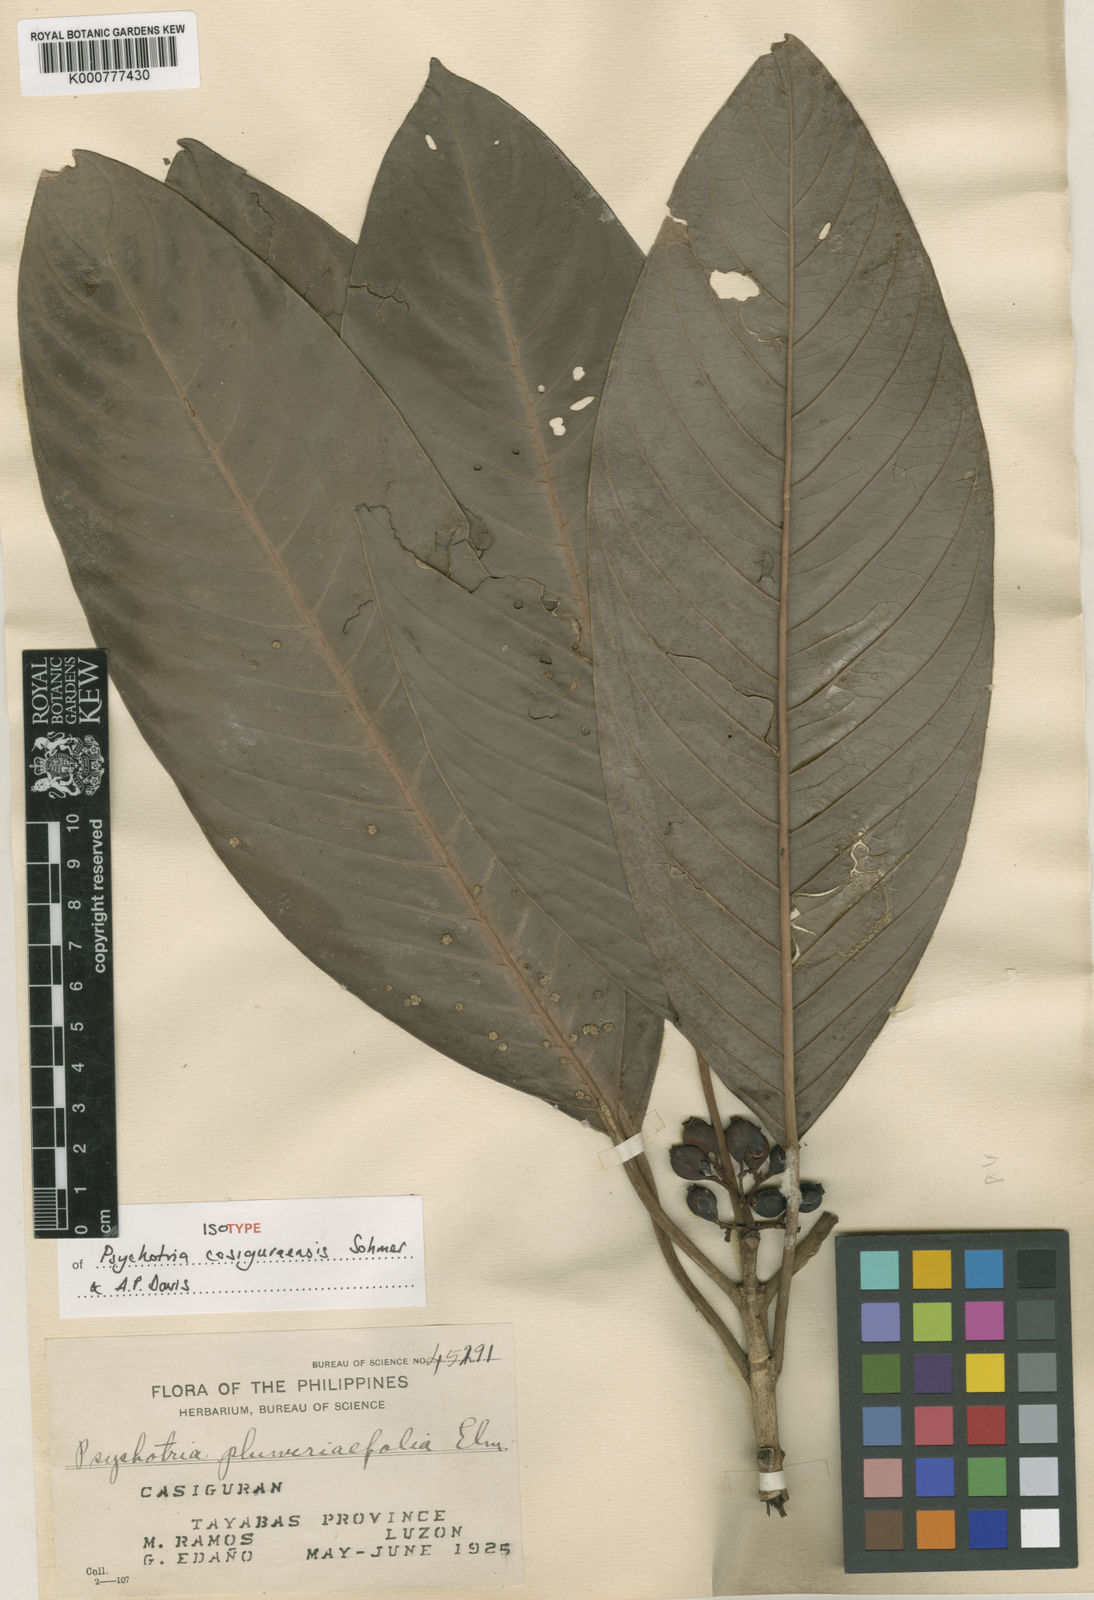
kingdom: Plantae
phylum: Tracheophyta
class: Magnoliopsida
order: Gentianales
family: Rubiaceae
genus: Psychotria
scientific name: Psychotria casiguraensis
